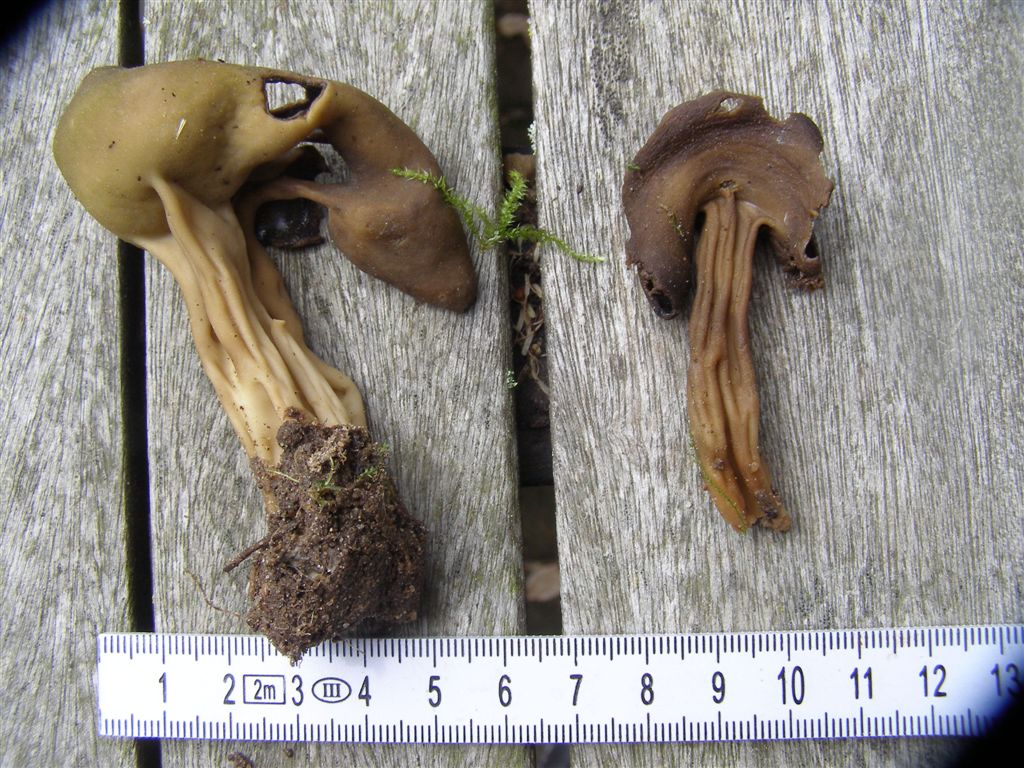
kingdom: Fungi
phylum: Ascomycota
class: Pezizomycetes
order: Pezizales
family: Helvellaceae
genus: Helvella
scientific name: Helvella solitaria
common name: Quélets foldhat
